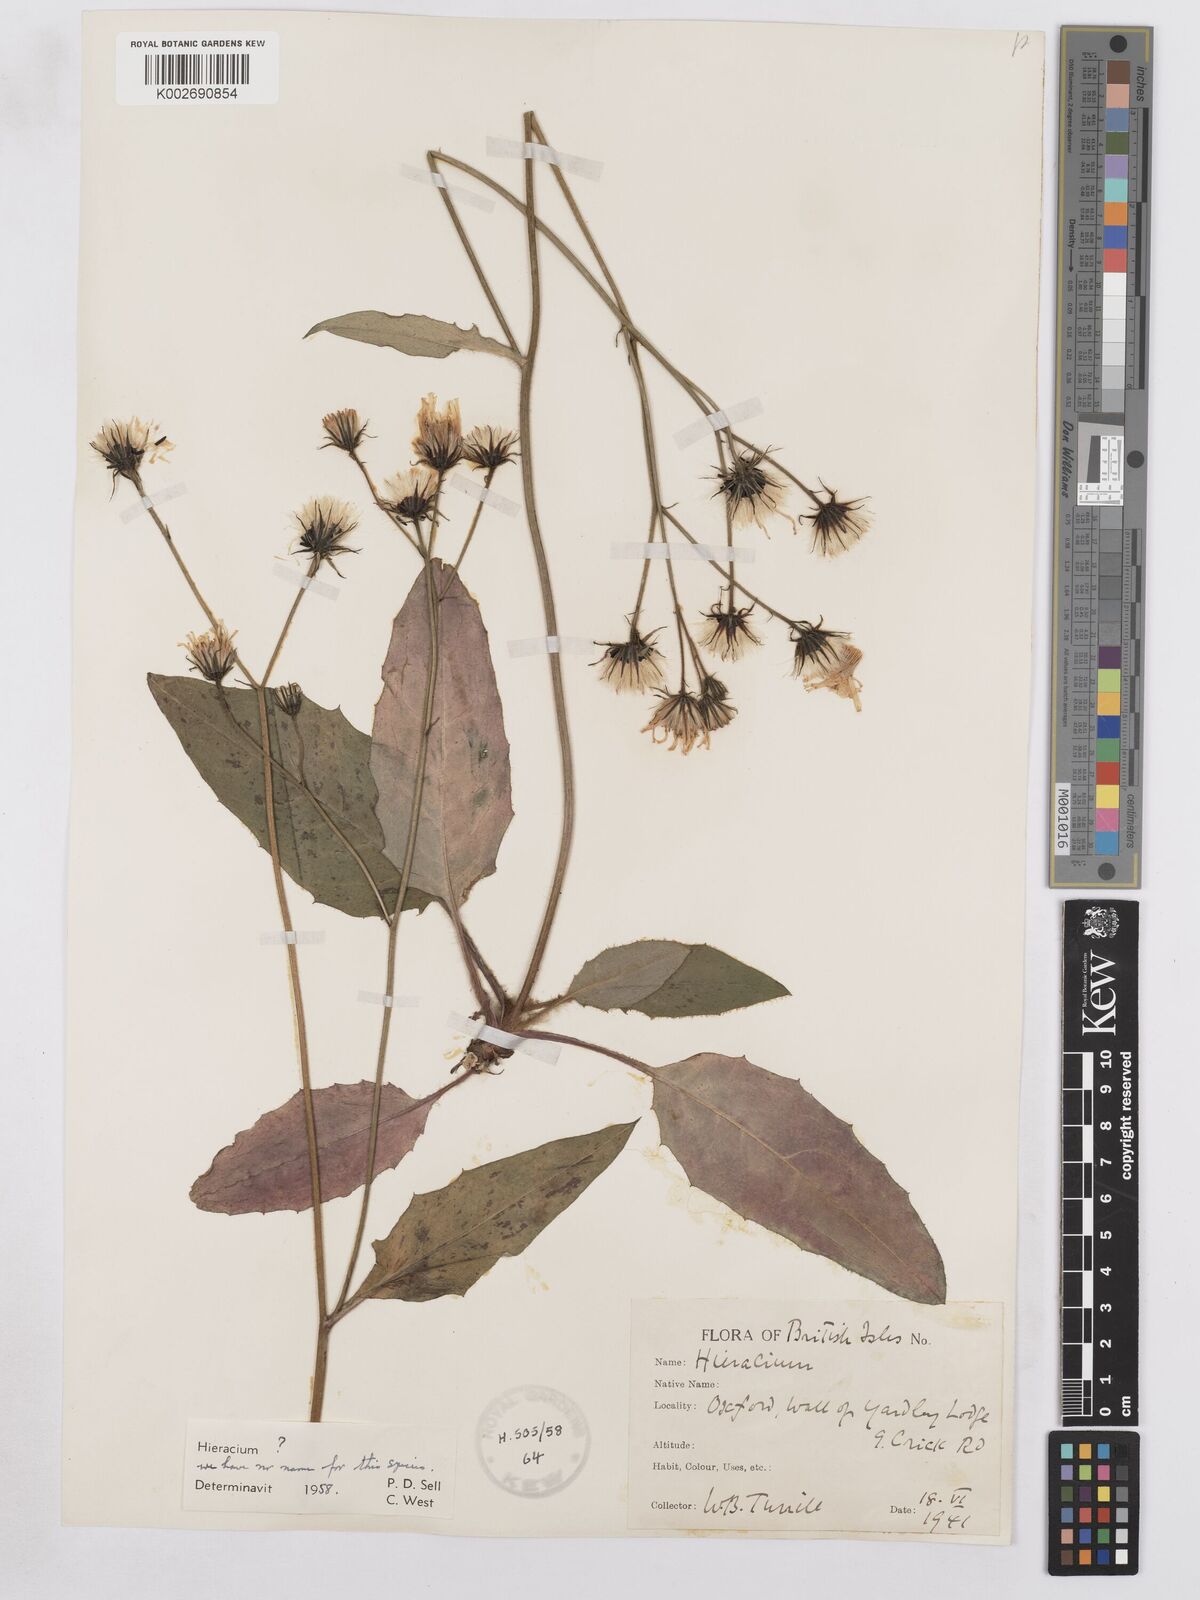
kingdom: Plantae
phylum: Tracheophyta
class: Magnoliopsida
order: Asterales
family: Asteraceae
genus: Hieracium
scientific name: Hieracium murorum
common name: Wall hawkweed
